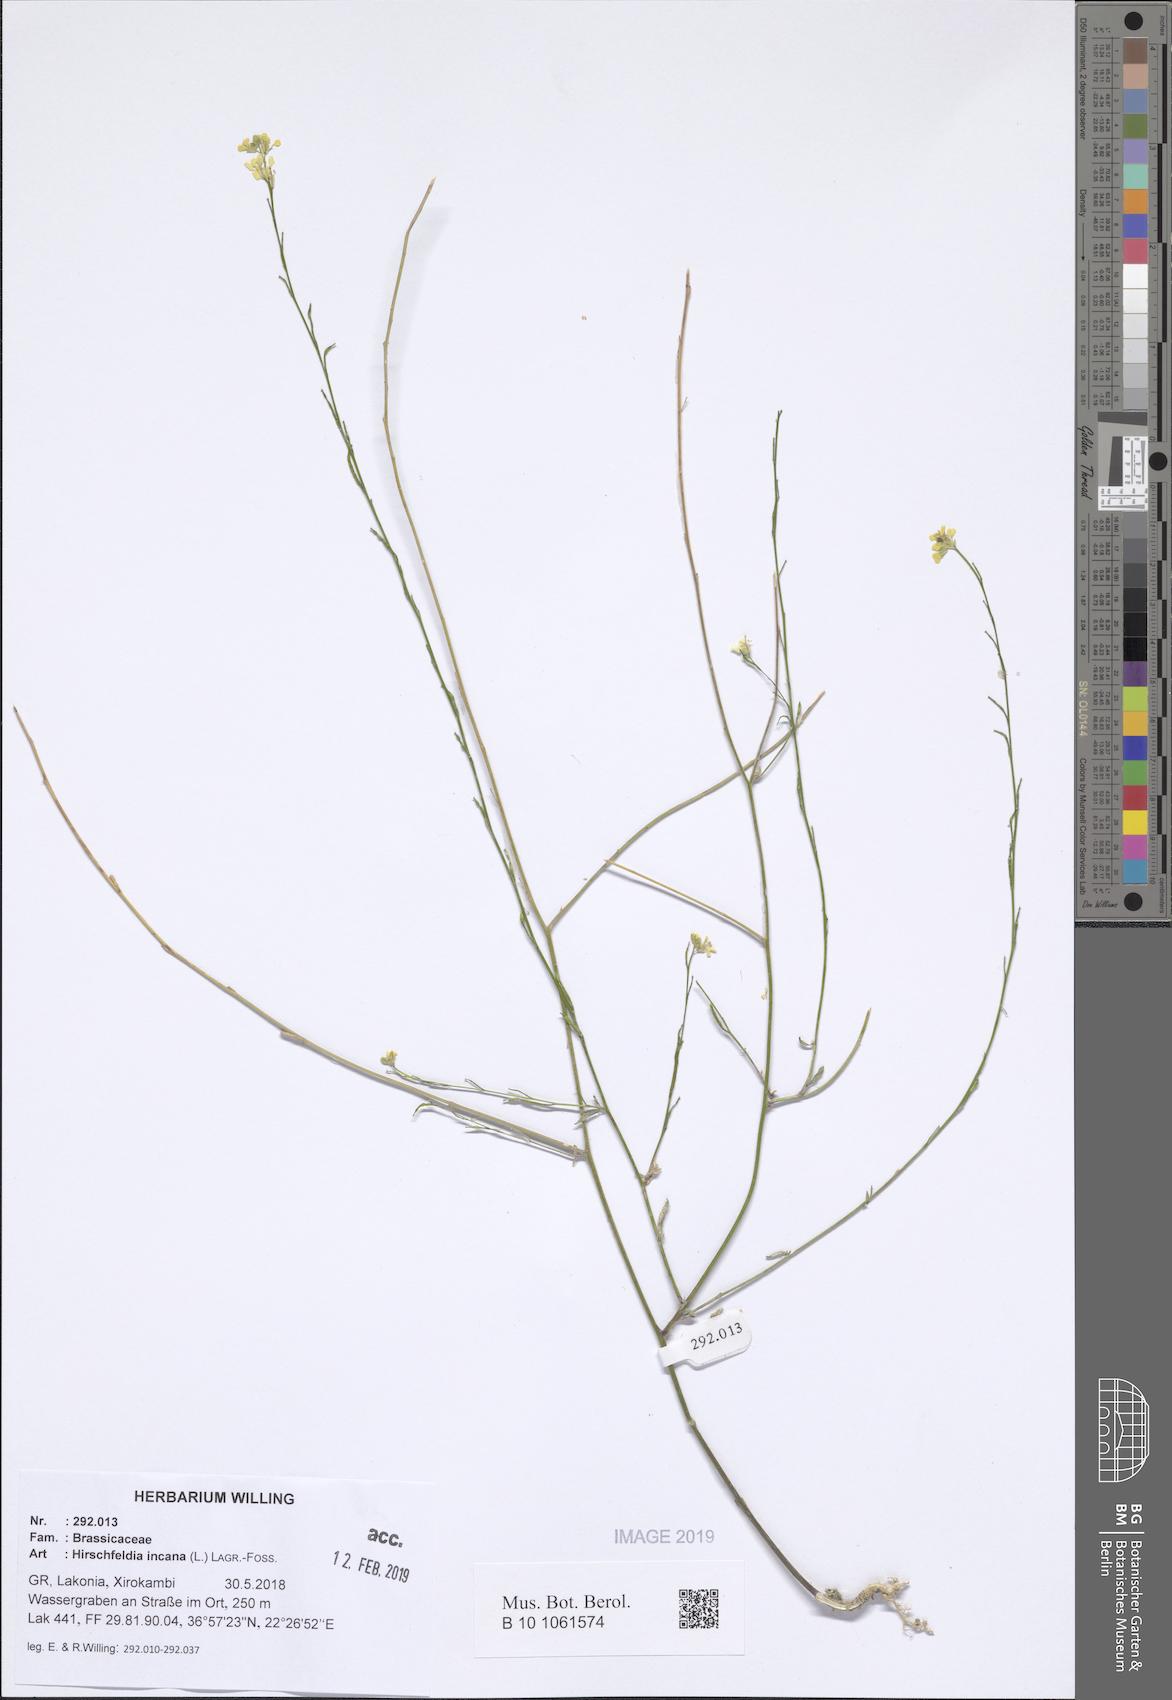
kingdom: Plantae
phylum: Tracheophyta
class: Magnoliopsida
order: Brassicales
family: Brassicaceae
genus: Hirschfeldia
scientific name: Hirschfeldia incana
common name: Hoary mustard
